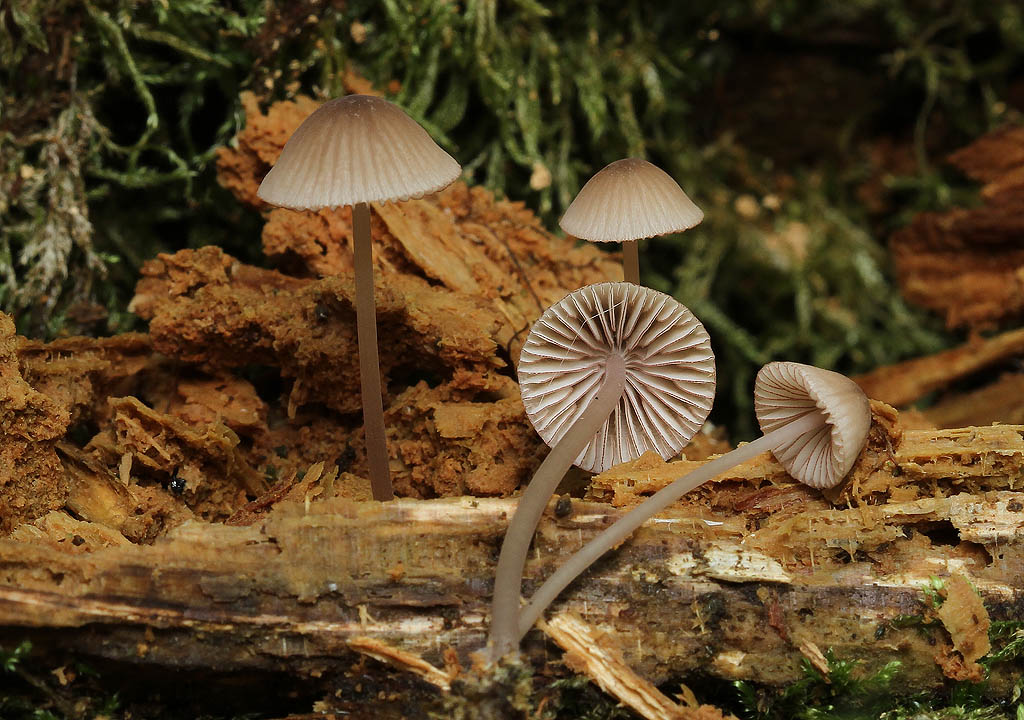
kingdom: Fungi
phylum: Basidiomycota
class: Agaricomycetes
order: Agaricales
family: Mycenaceae
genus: Mycena
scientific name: Mycena rubromarginata
